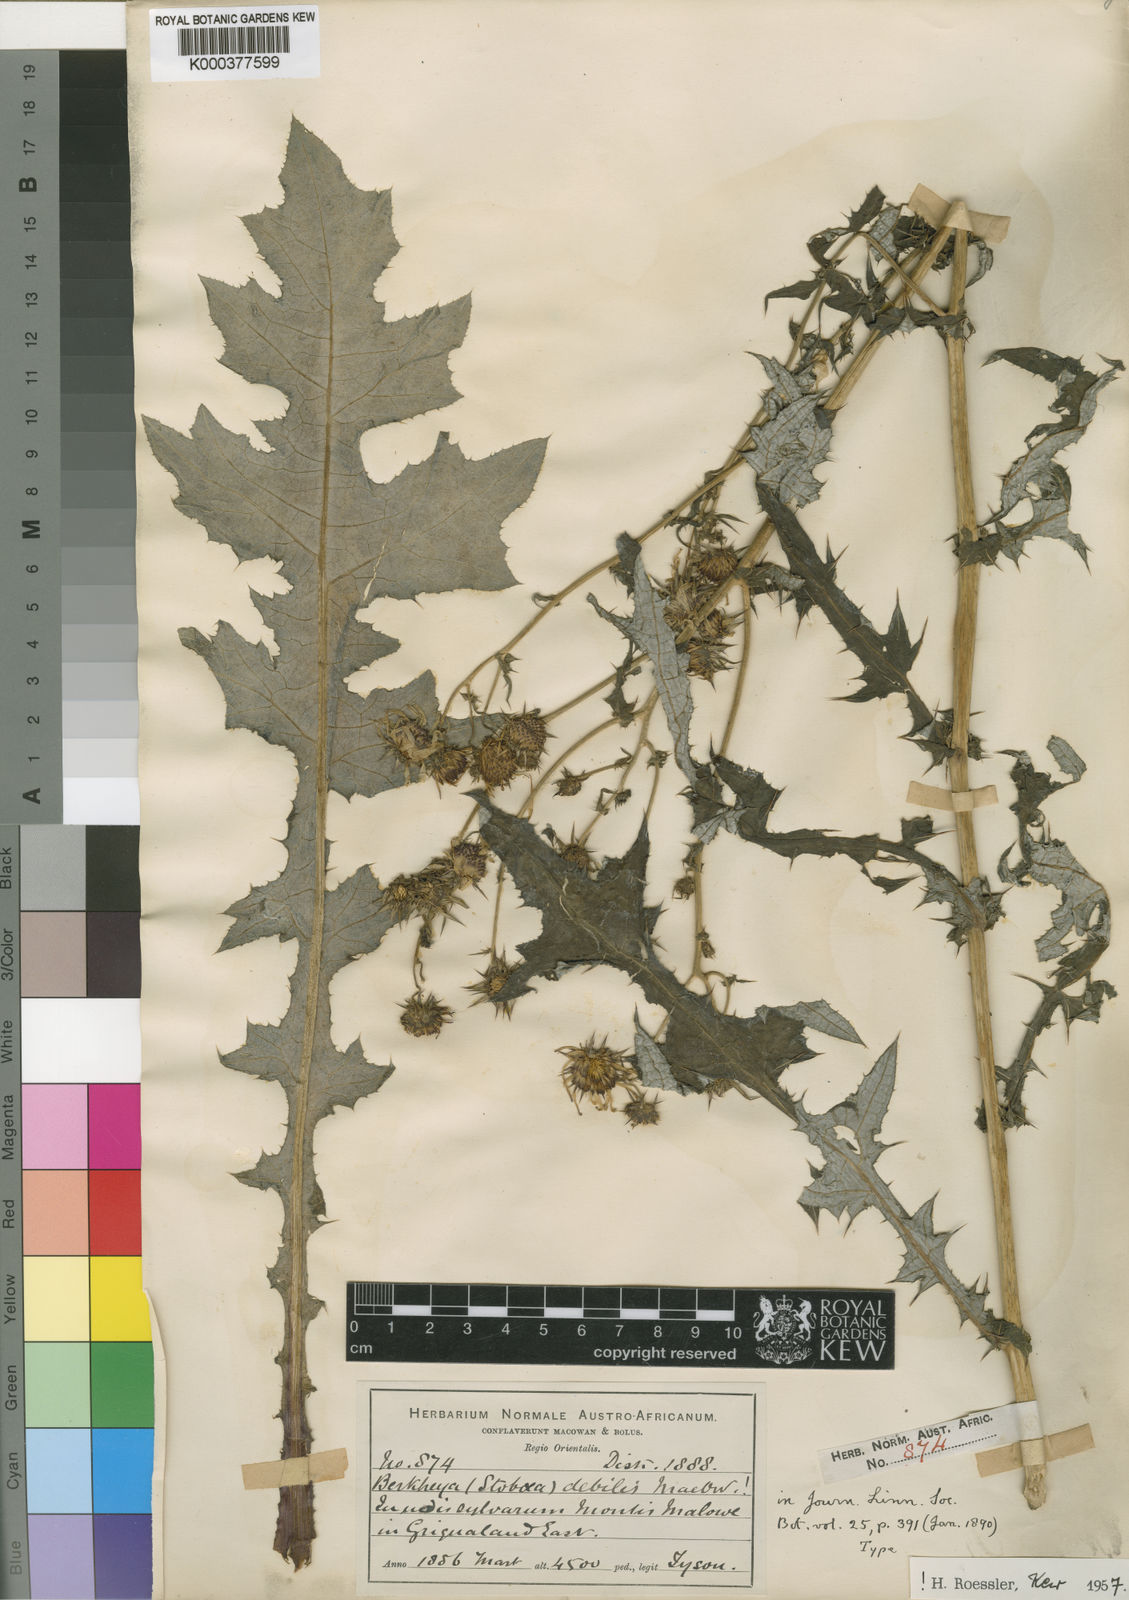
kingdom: Plantae
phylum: Tracheophyta
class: Magnoliopsida
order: Asterales
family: Asteraceae
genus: Berkheya
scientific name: Berkheya debilis
